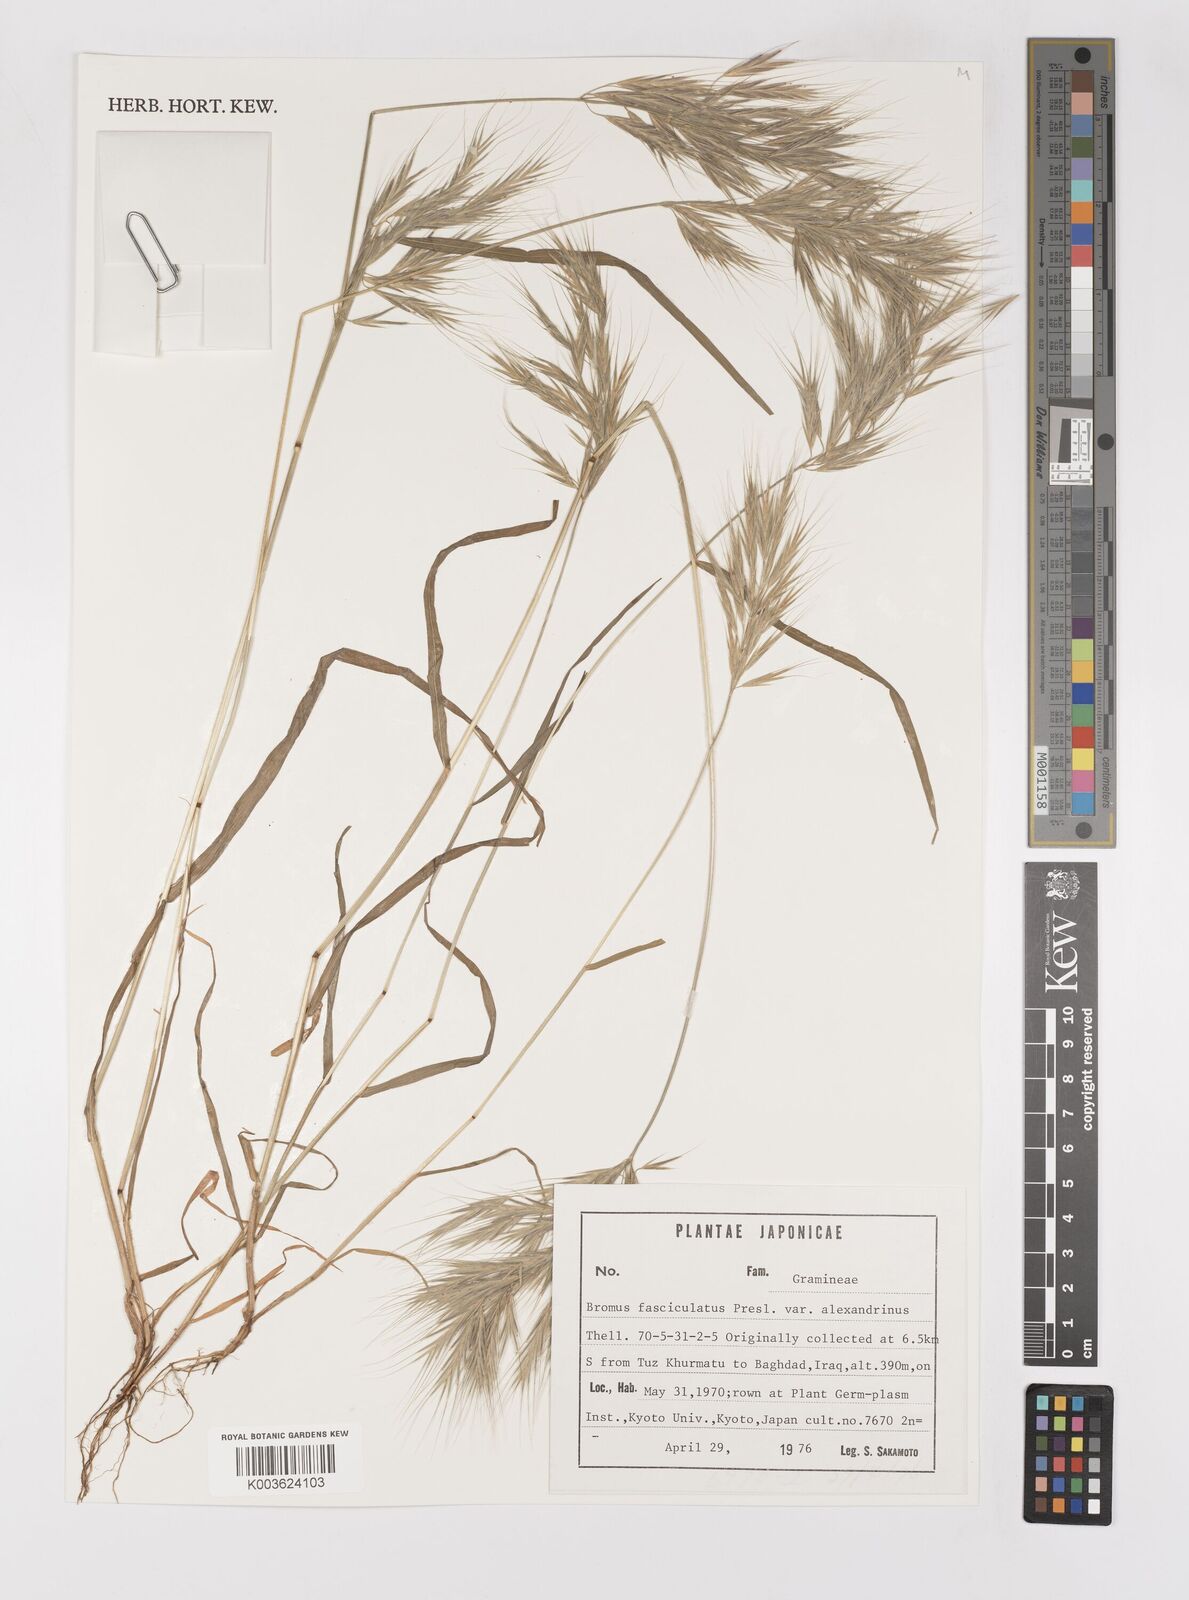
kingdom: Plantae
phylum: Tracheophyta
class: Liliopsida
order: Poales
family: Poaceae
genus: Bromus
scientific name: Bromus fasciculatus
